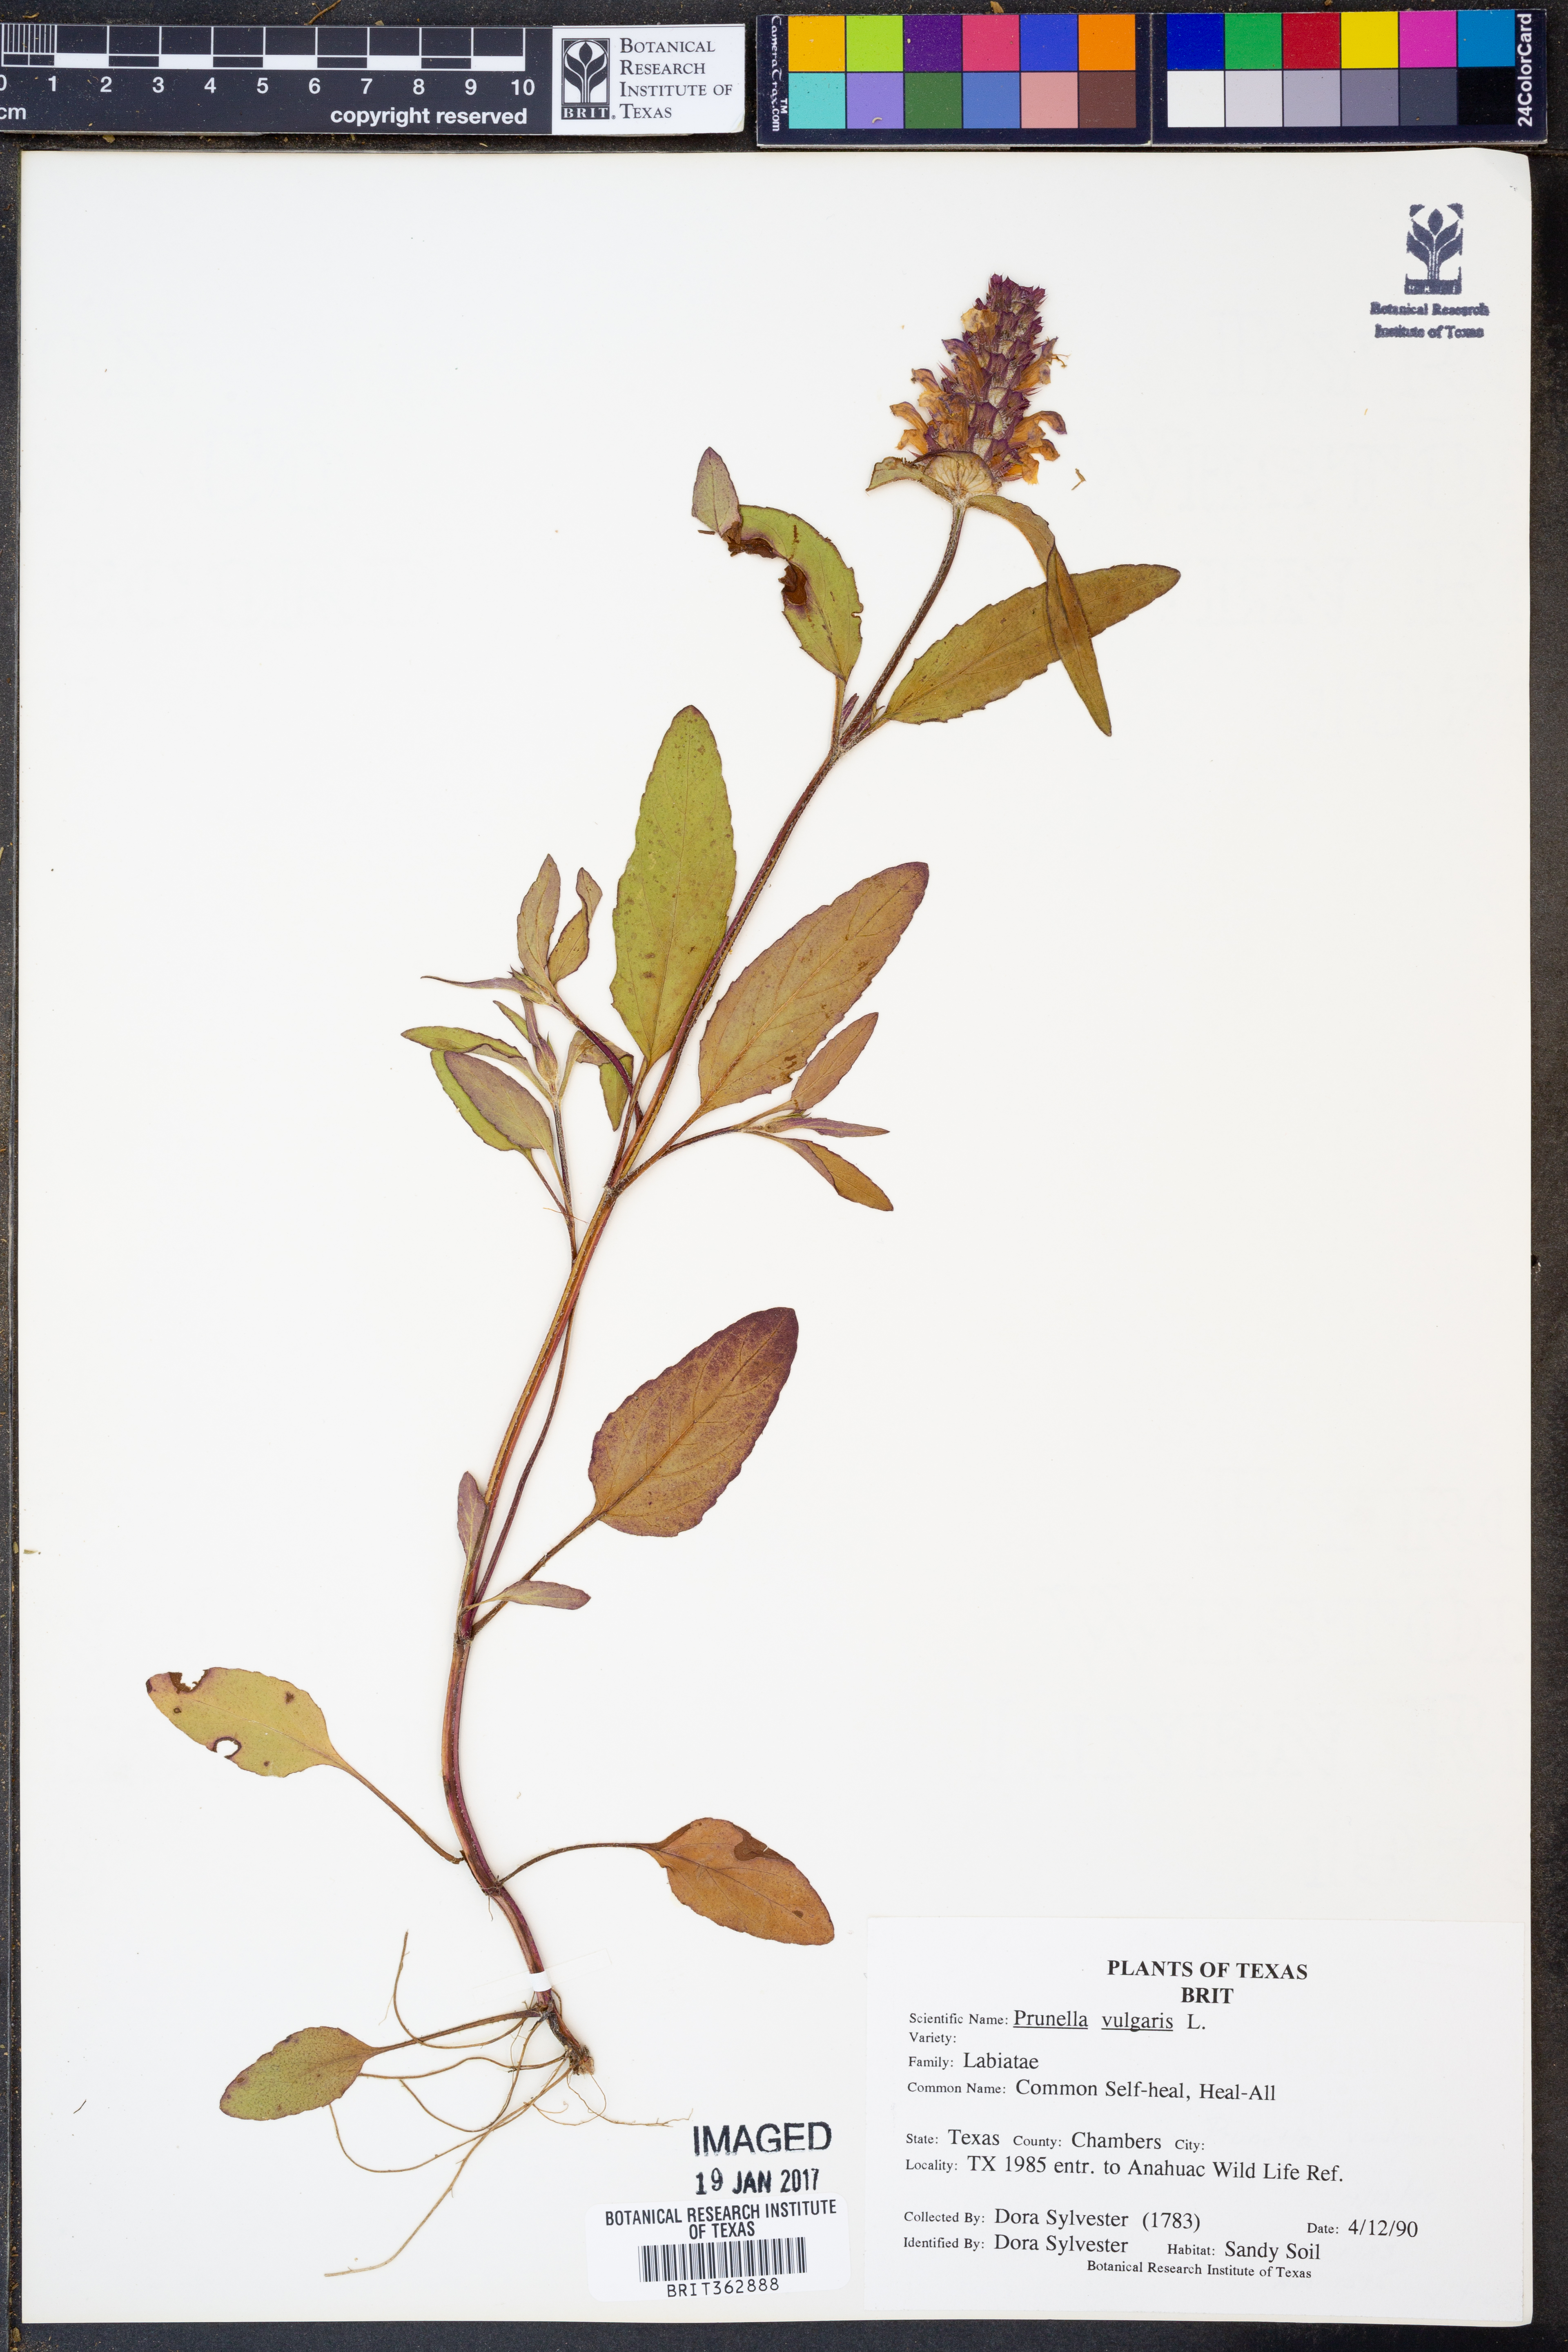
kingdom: Plantae
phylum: Tracheophyta
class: Magnoliopsida
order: Lamiales
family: Lamiaceae
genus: Prunella
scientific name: Prunella vulgaris
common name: Heal-all
